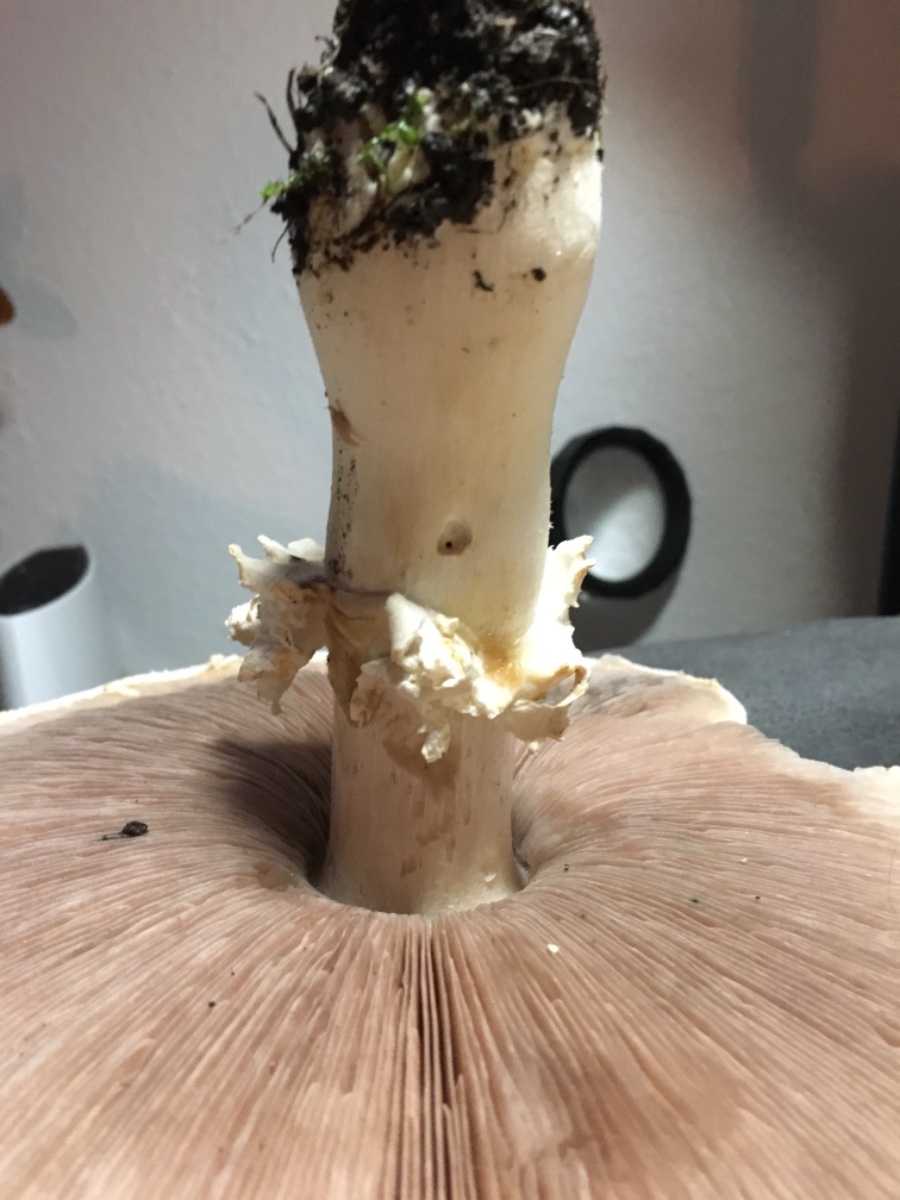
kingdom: Fungi
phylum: Basidiomycota
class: Agaricomycetes
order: Agaricales
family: Agaricaceae
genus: Agaricus
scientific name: Agaricus arvensis
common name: ager-champignon
